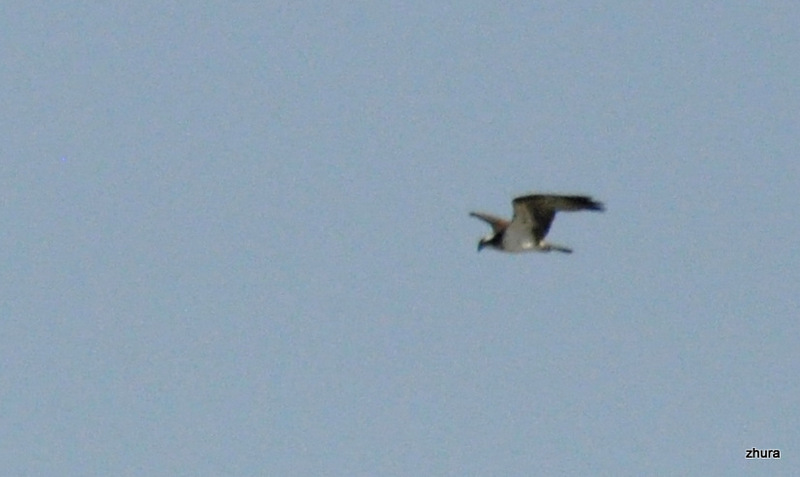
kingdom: Animalia
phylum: Chordata
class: Aves
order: Accipitriformes
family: Pandionidae
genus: Pandion
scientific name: Pandion haliaetus
